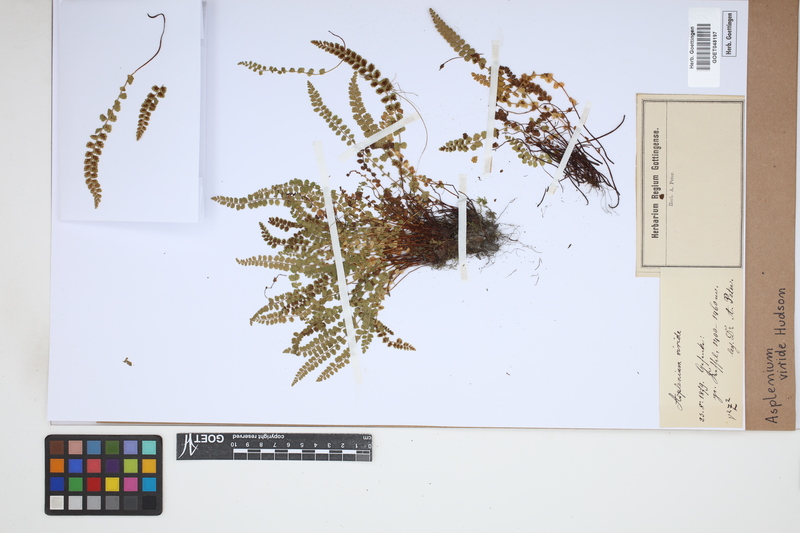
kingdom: Plantae
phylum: Tracheophyta
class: Polypodiopsida
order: Polypodiales
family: Aspleniaceae
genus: Asplenium
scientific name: Asplenium viride
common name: Green spleenwort
